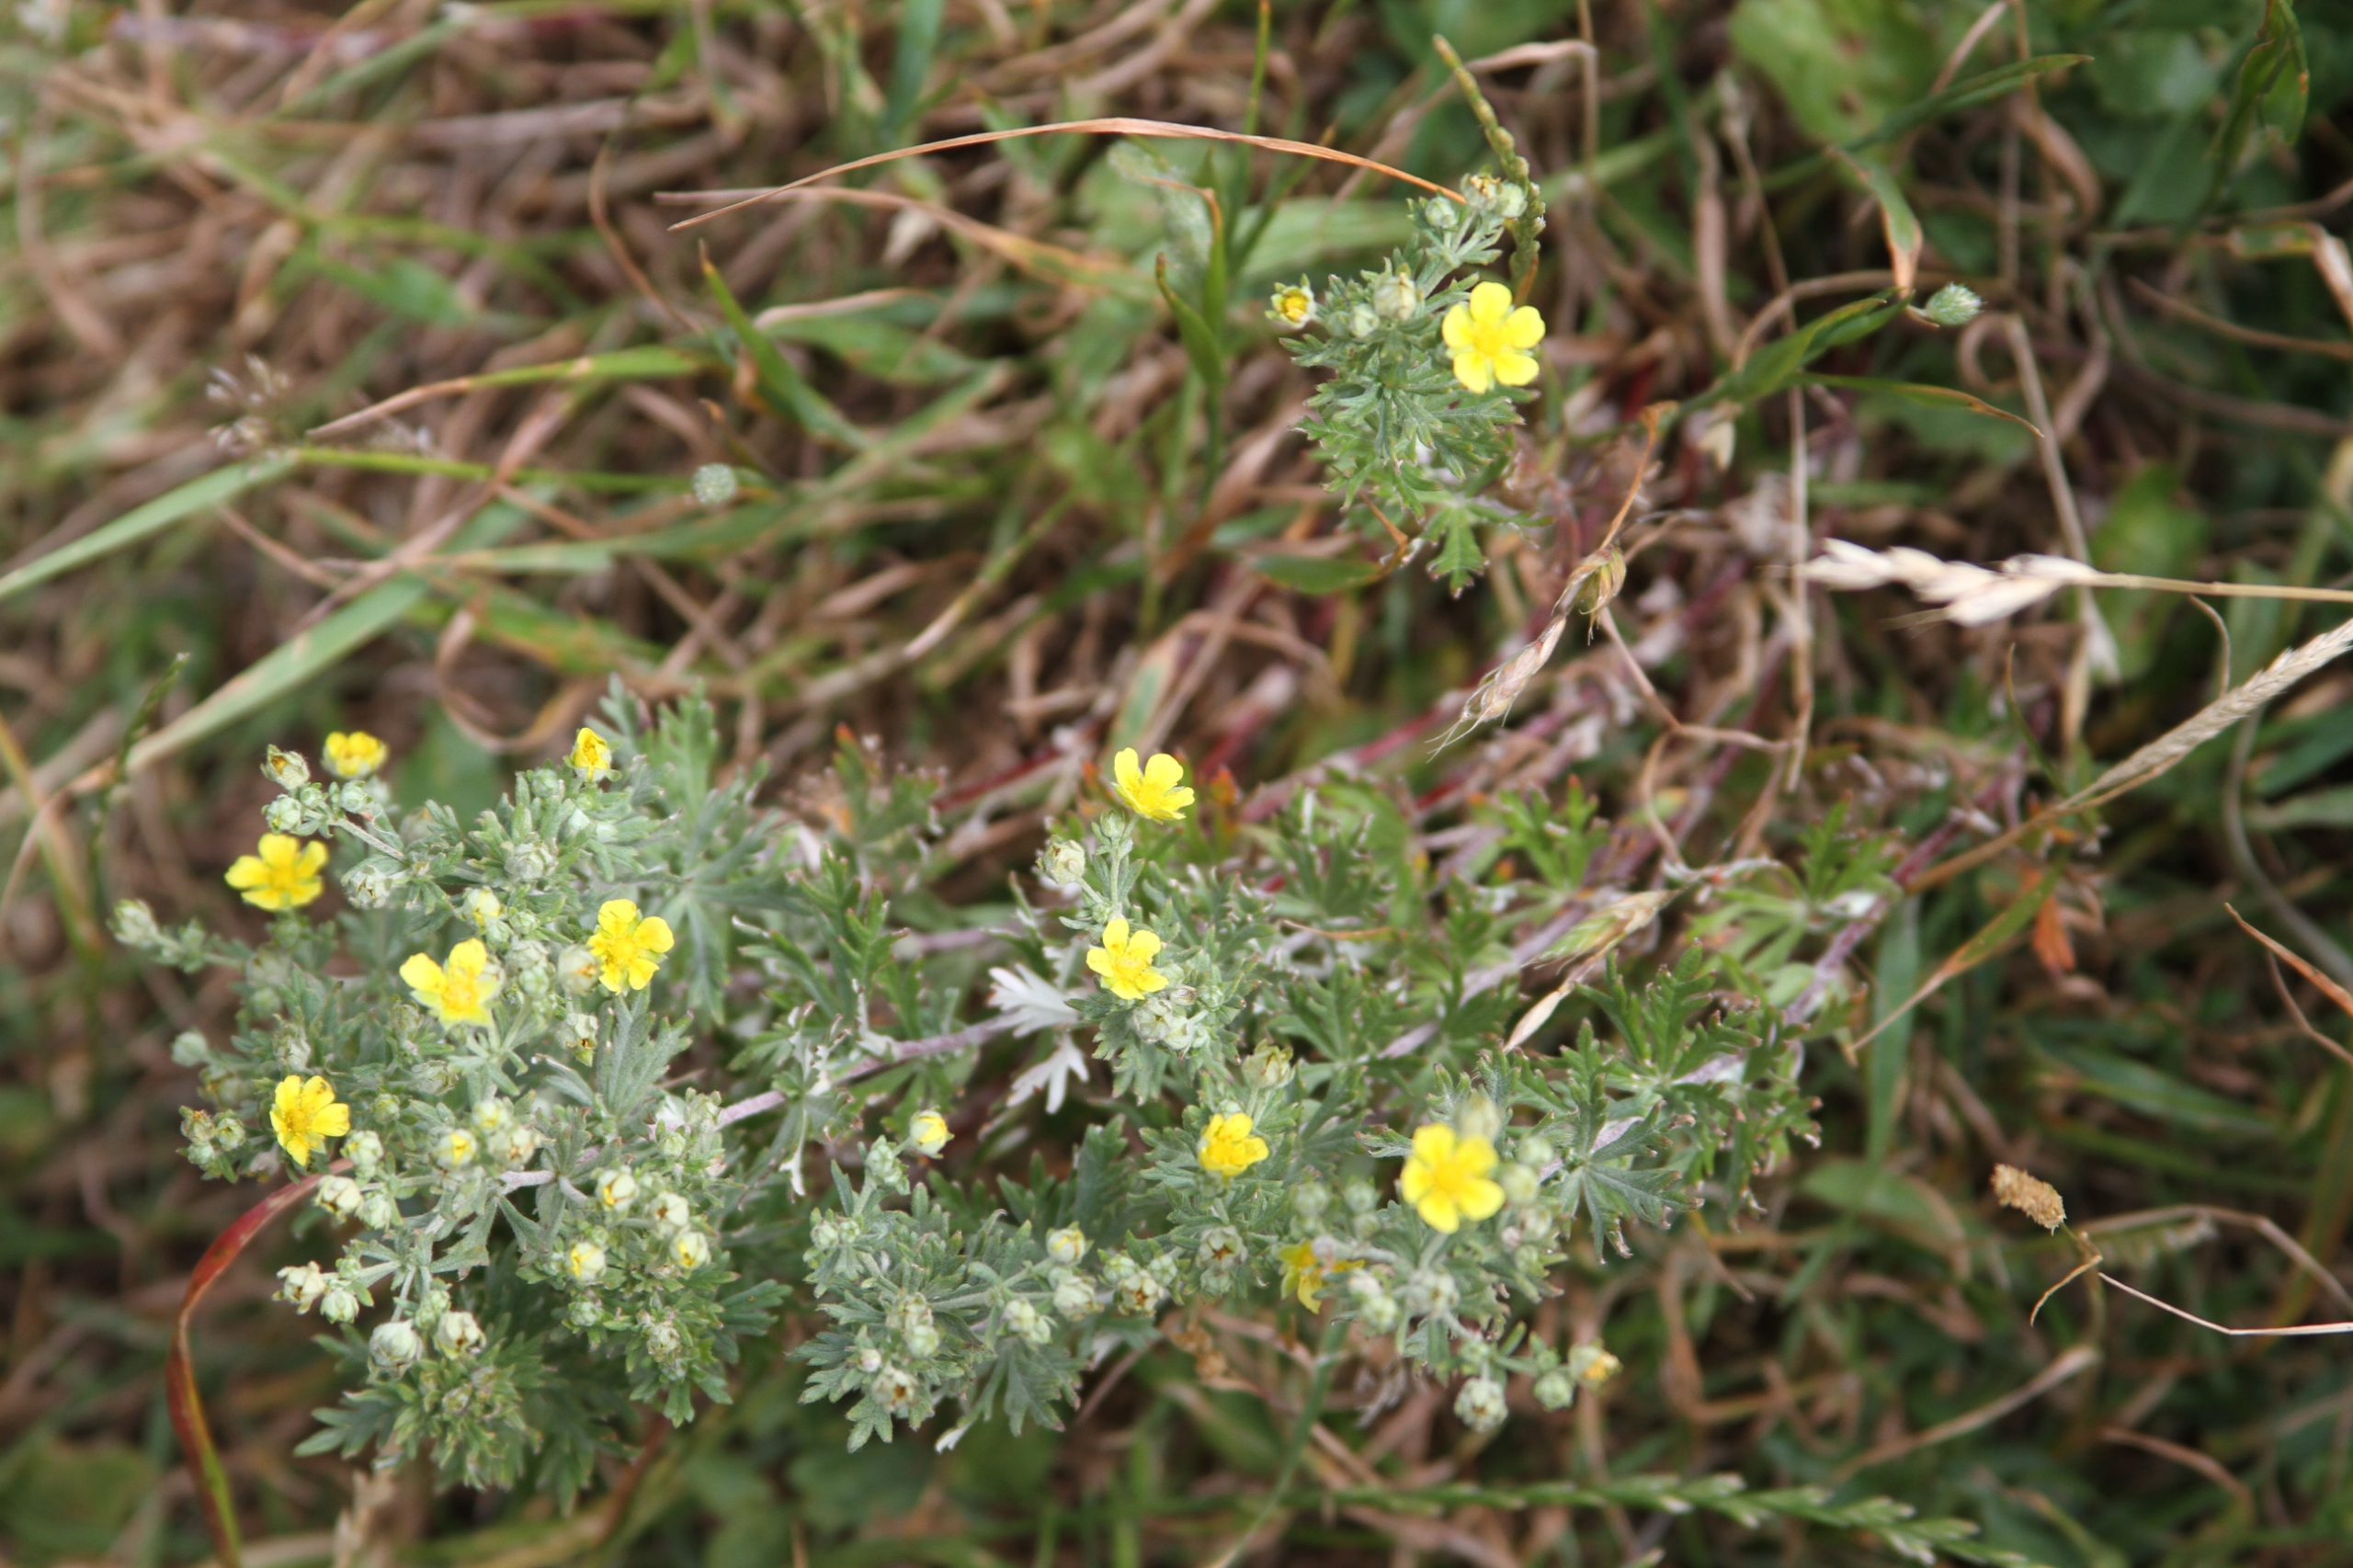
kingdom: Plantae
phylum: Tracheophyta
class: Magnoliopsida
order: Rosales
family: Rosaceae
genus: Potentilla
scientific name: Potentilla argentea
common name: Sølv-potentil
